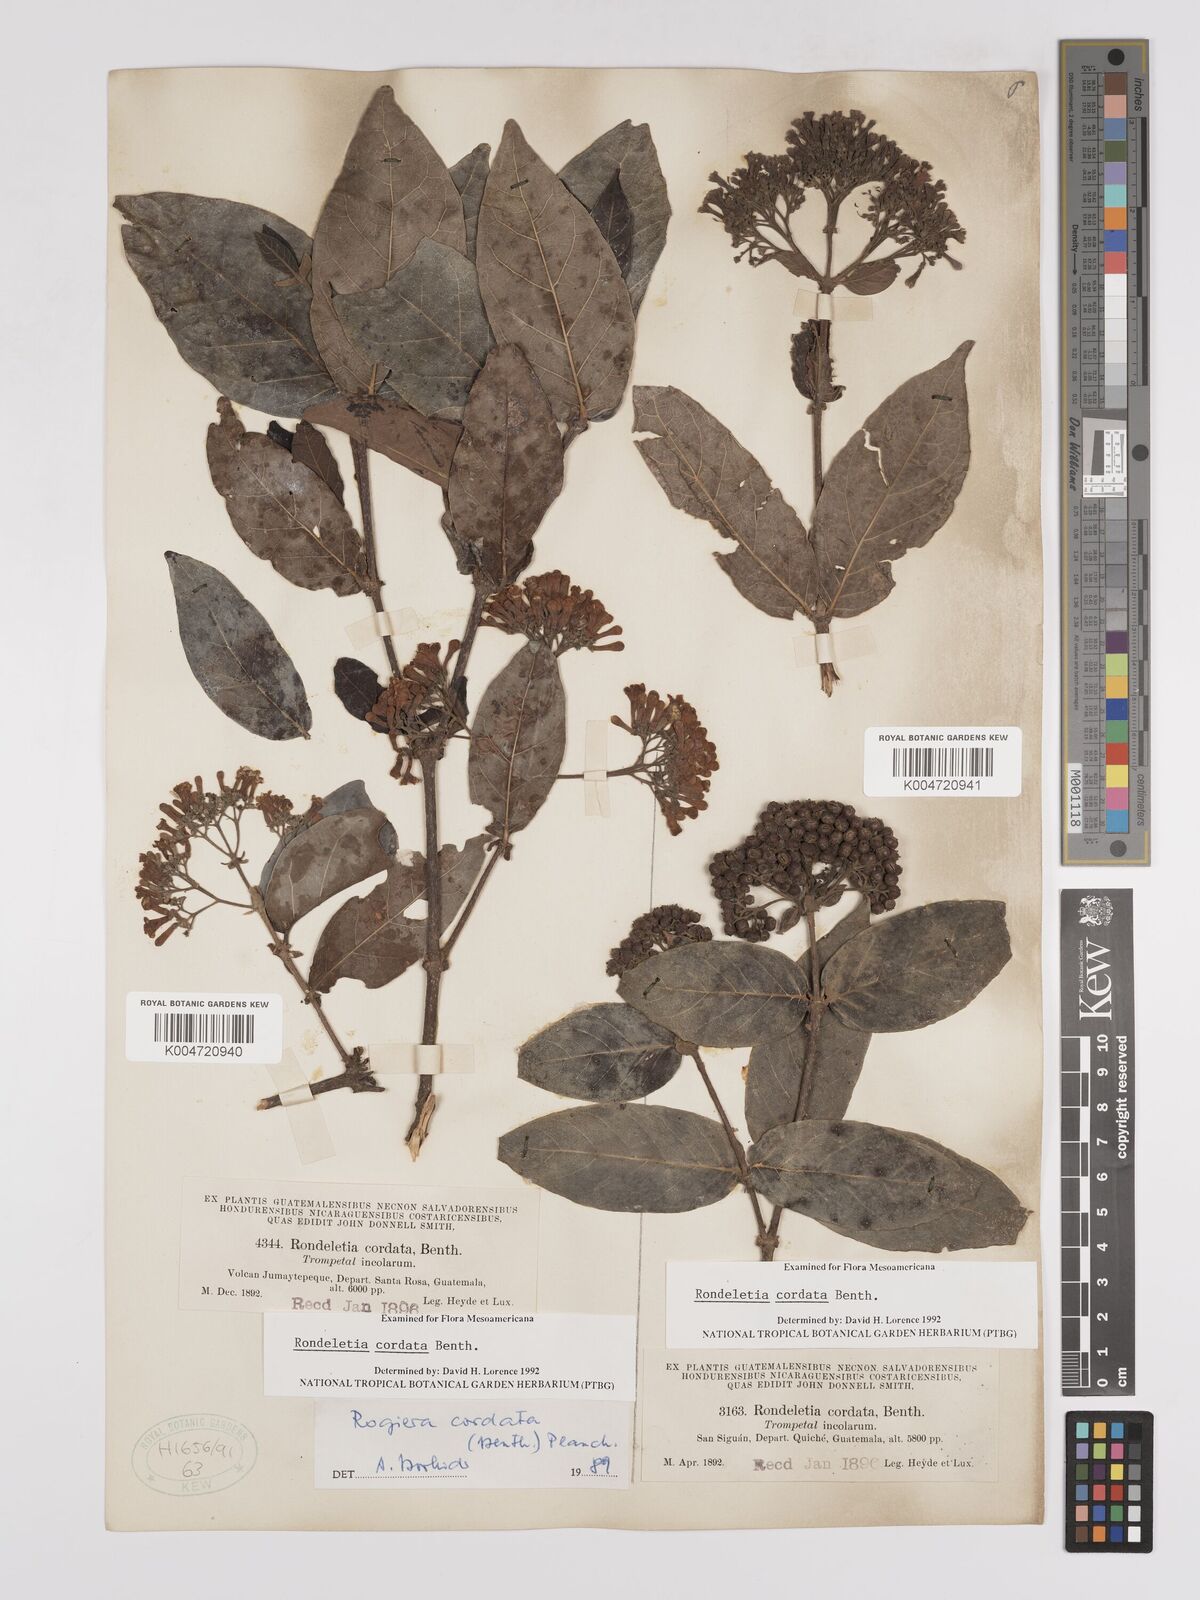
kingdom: Plantae
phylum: Tracheophyta
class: Magnoliopsida
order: Gentianales
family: Rubiaceae
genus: Rogiera
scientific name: Rogiera cordata
